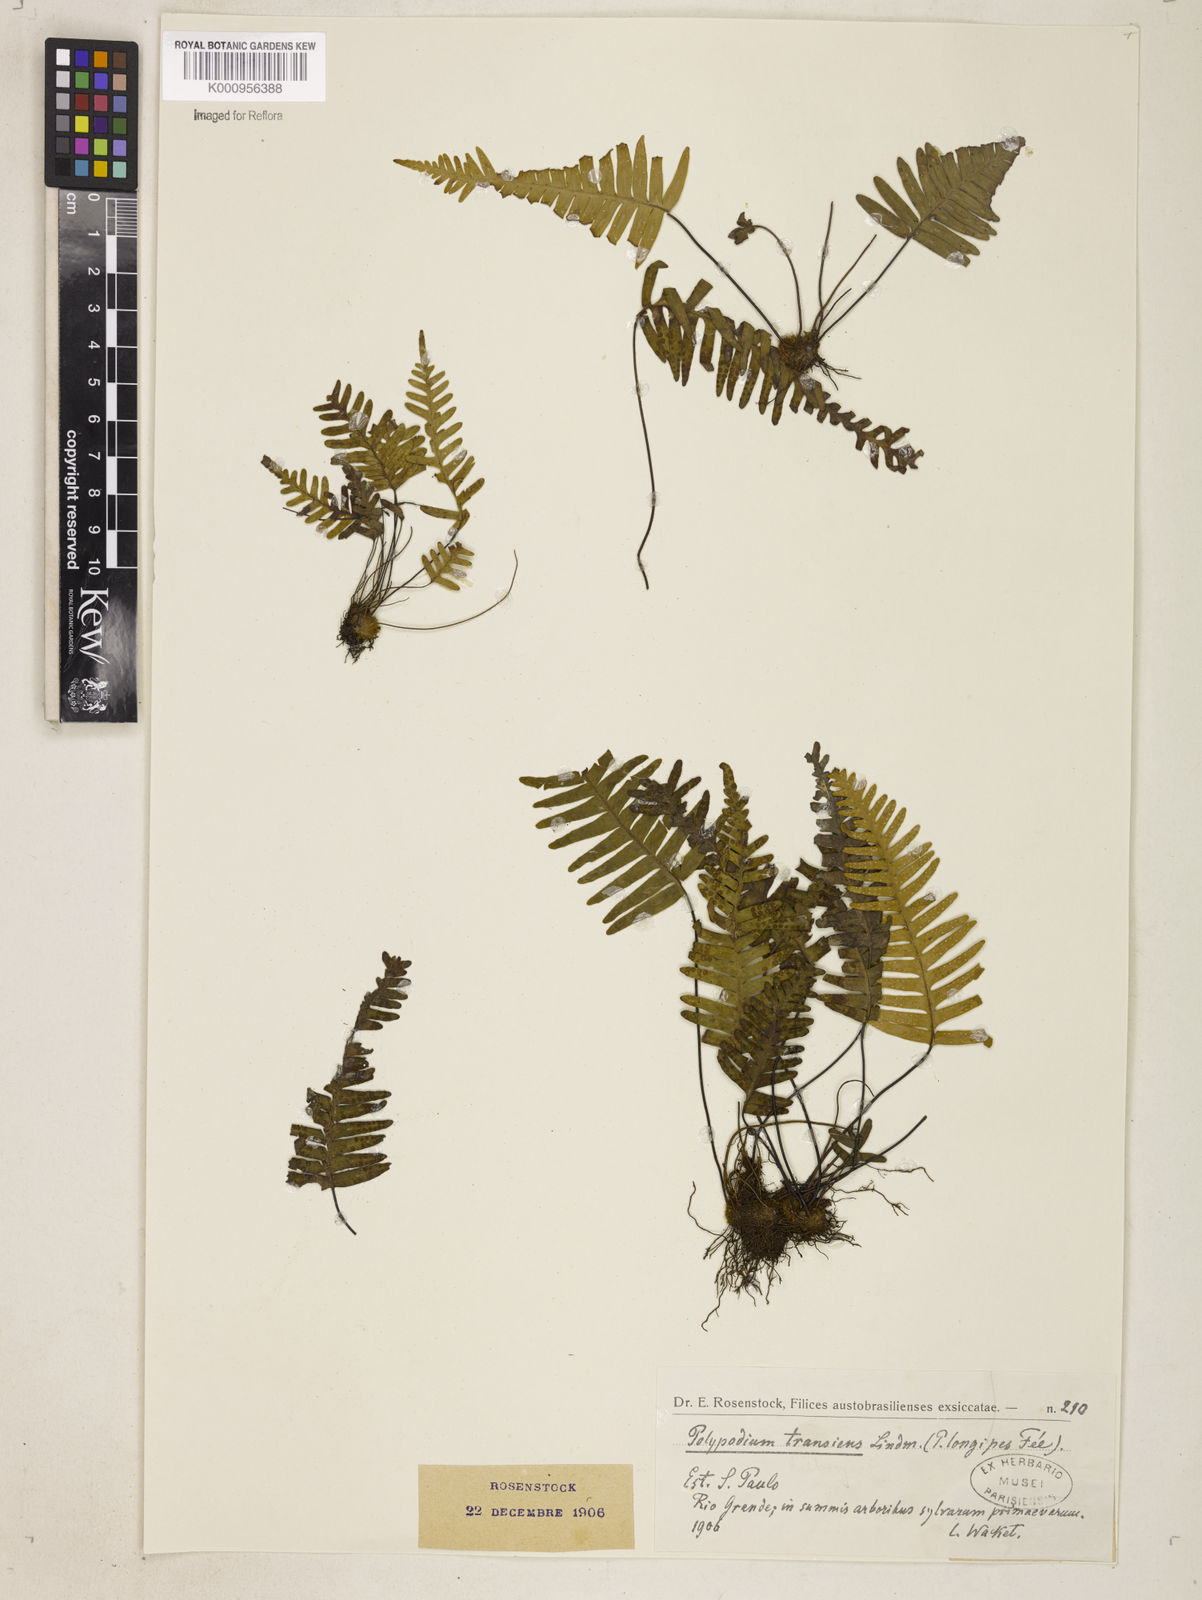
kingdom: Plantae
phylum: Tracheophyta
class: Polypodiopsida
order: Polypodiales
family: Polypodiaceae
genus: Serpocaulon
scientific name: Serpocaulon triseriale
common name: Angle-vein fern
